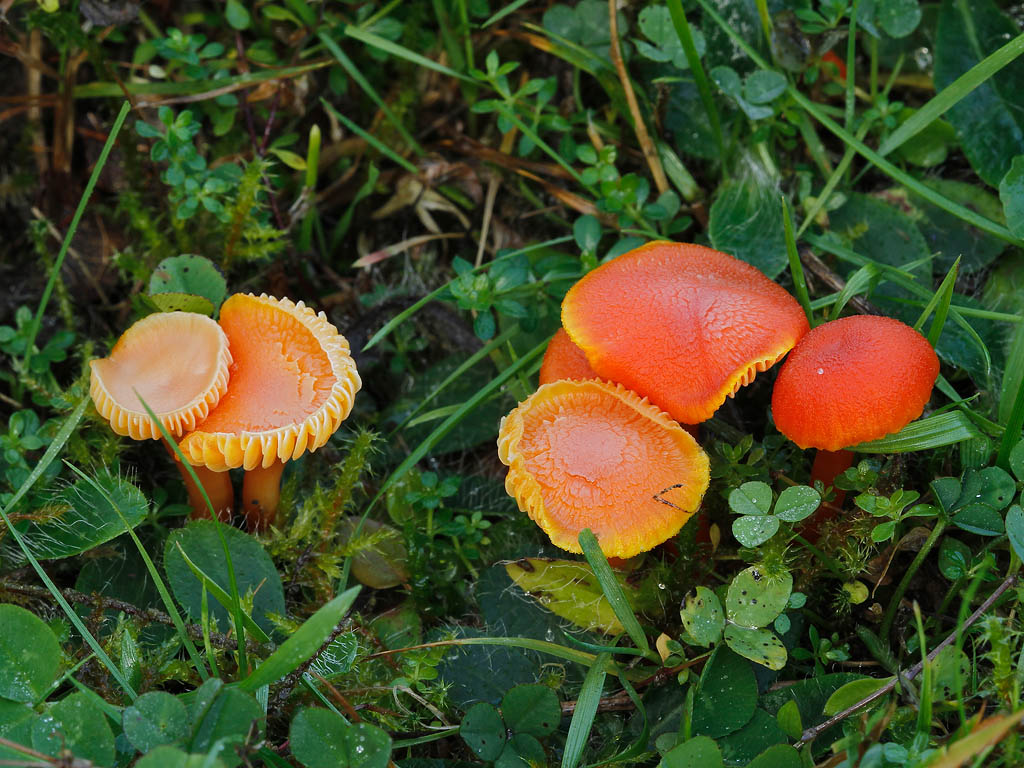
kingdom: Fungi
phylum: Basidiomycota
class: Agaricomycetes
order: Agaricales
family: Hygrophoraceae
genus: Hygrocybe
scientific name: Hygrocybe miniata
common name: mønje-vokshat
